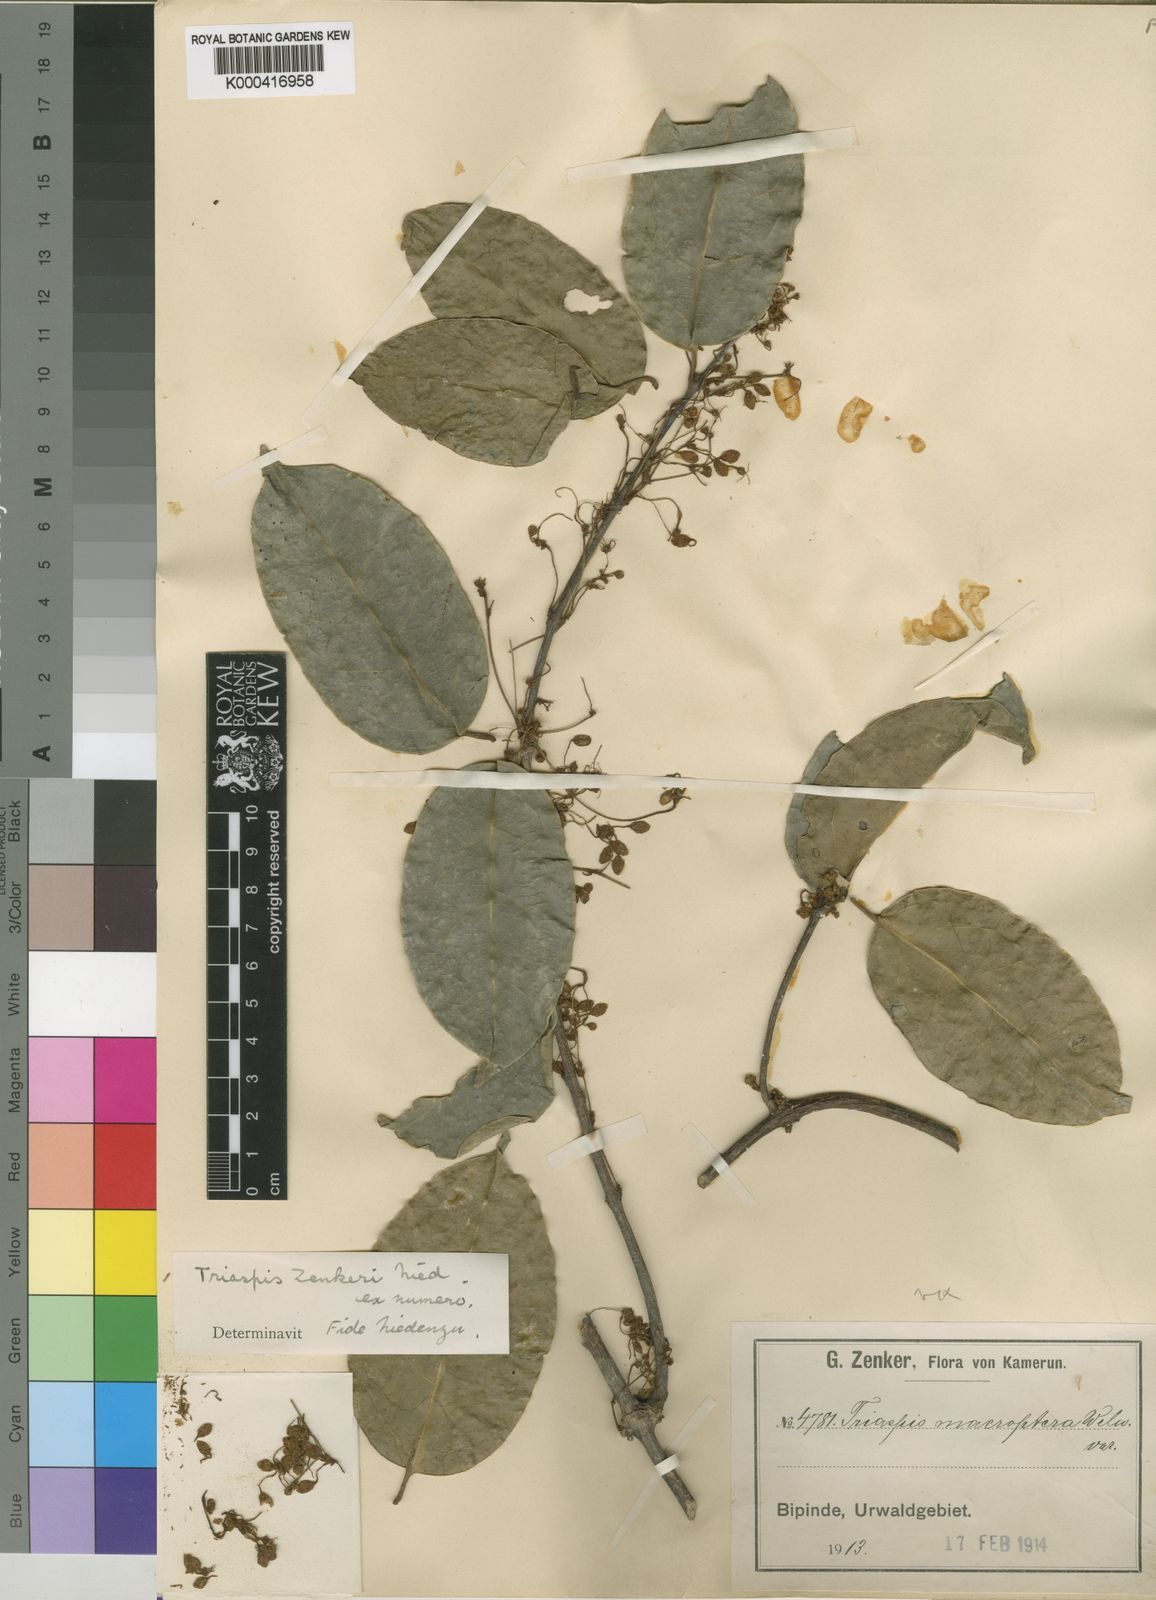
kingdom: Plantae
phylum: Tracheophyta
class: Magnoliopsida
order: Malpighiales
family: Malpighiaceae
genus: Triaspis
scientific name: Triaspis emarginata
